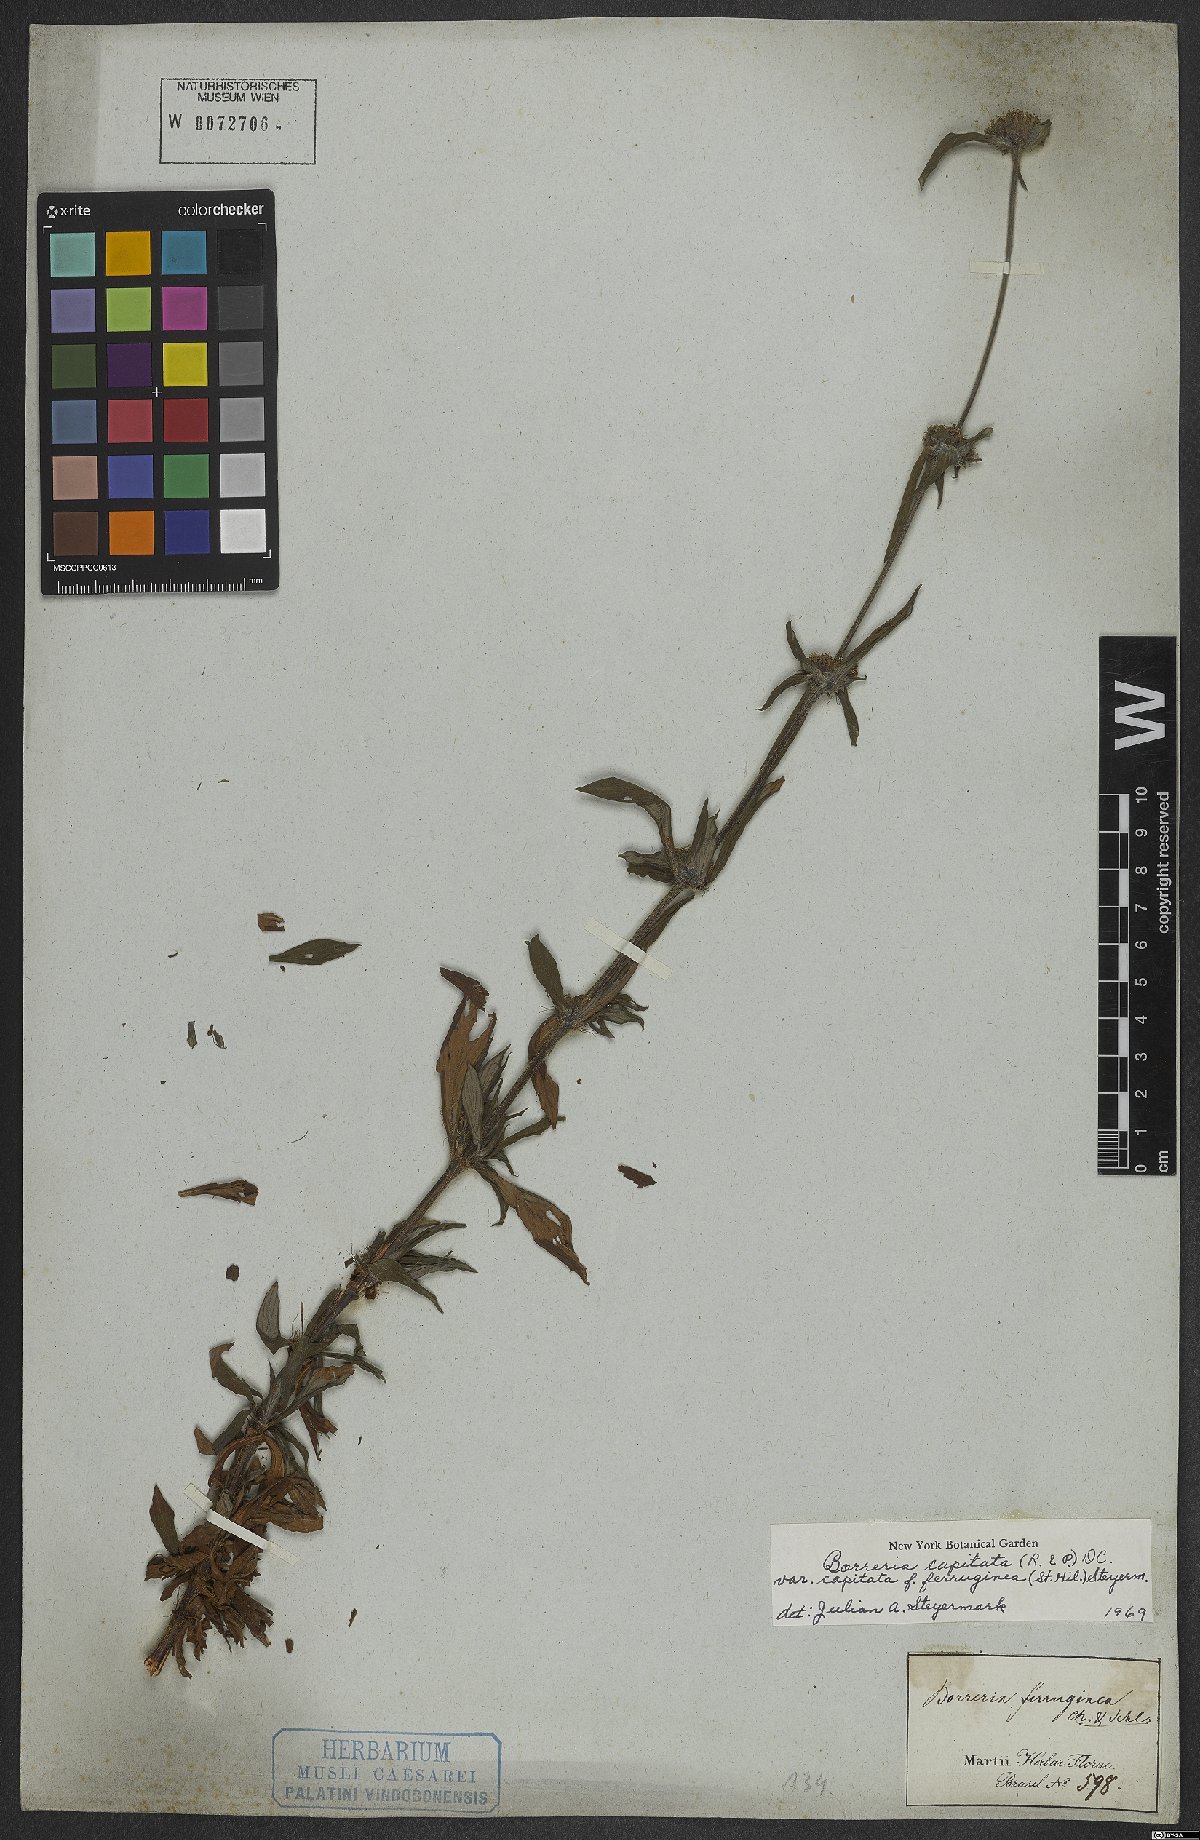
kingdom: Plantae
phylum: Tracheophyta
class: Magnoliopsida
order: Gentianales
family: Rubiaceae
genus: Spermacoce
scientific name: Spermacoce capitata
